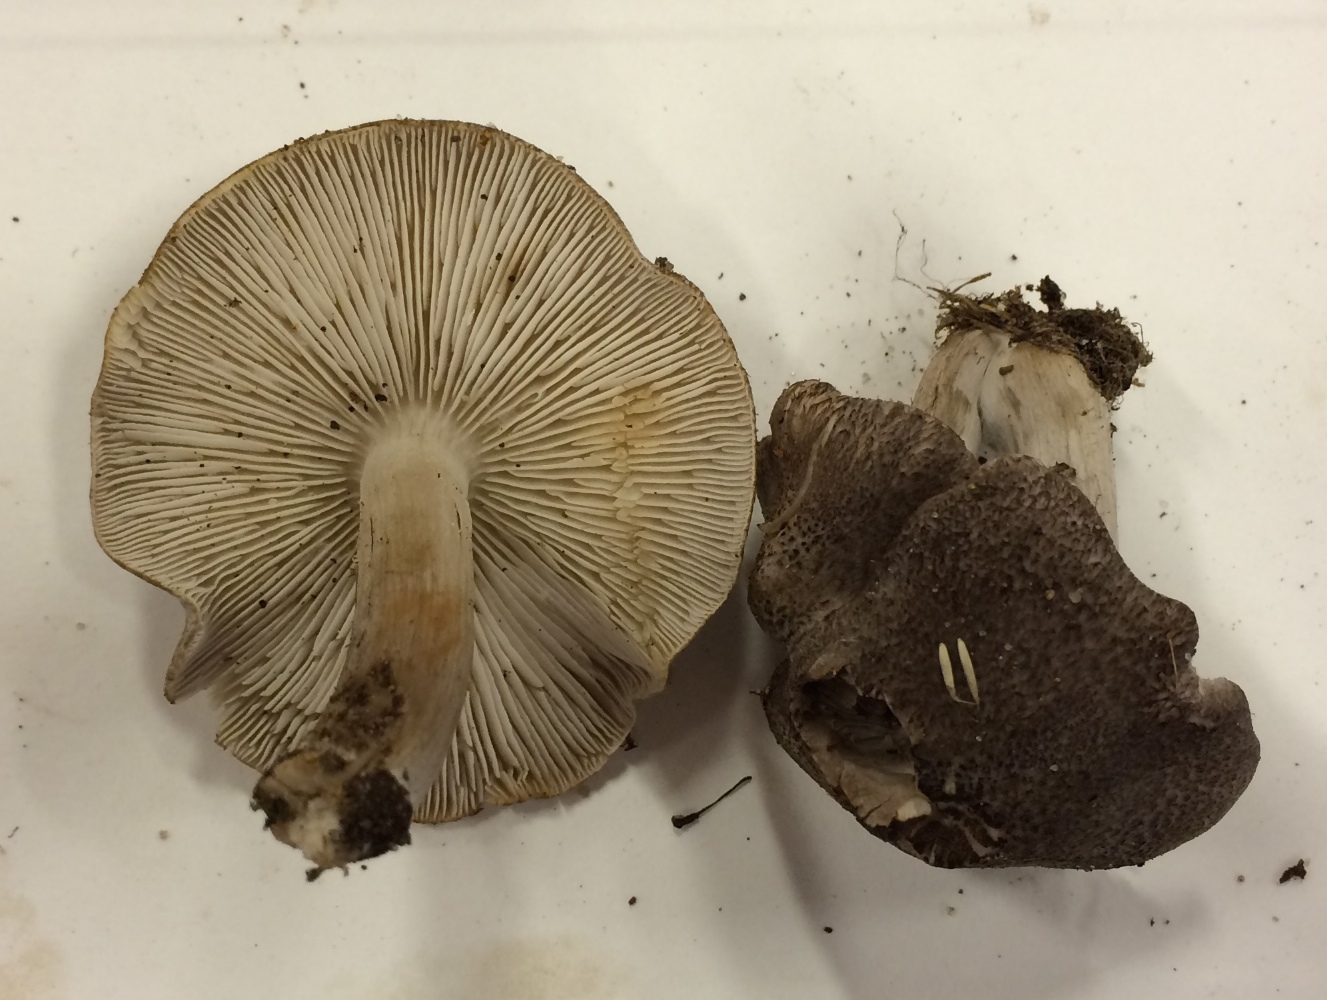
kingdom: Fungi
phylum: Basidiomycota
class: Agaricomycetes
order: Agaricales
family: Tricholomataceae
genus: Tricholoma
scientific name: Tricholoma scalpturatum
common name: gulplettet ridderhat
